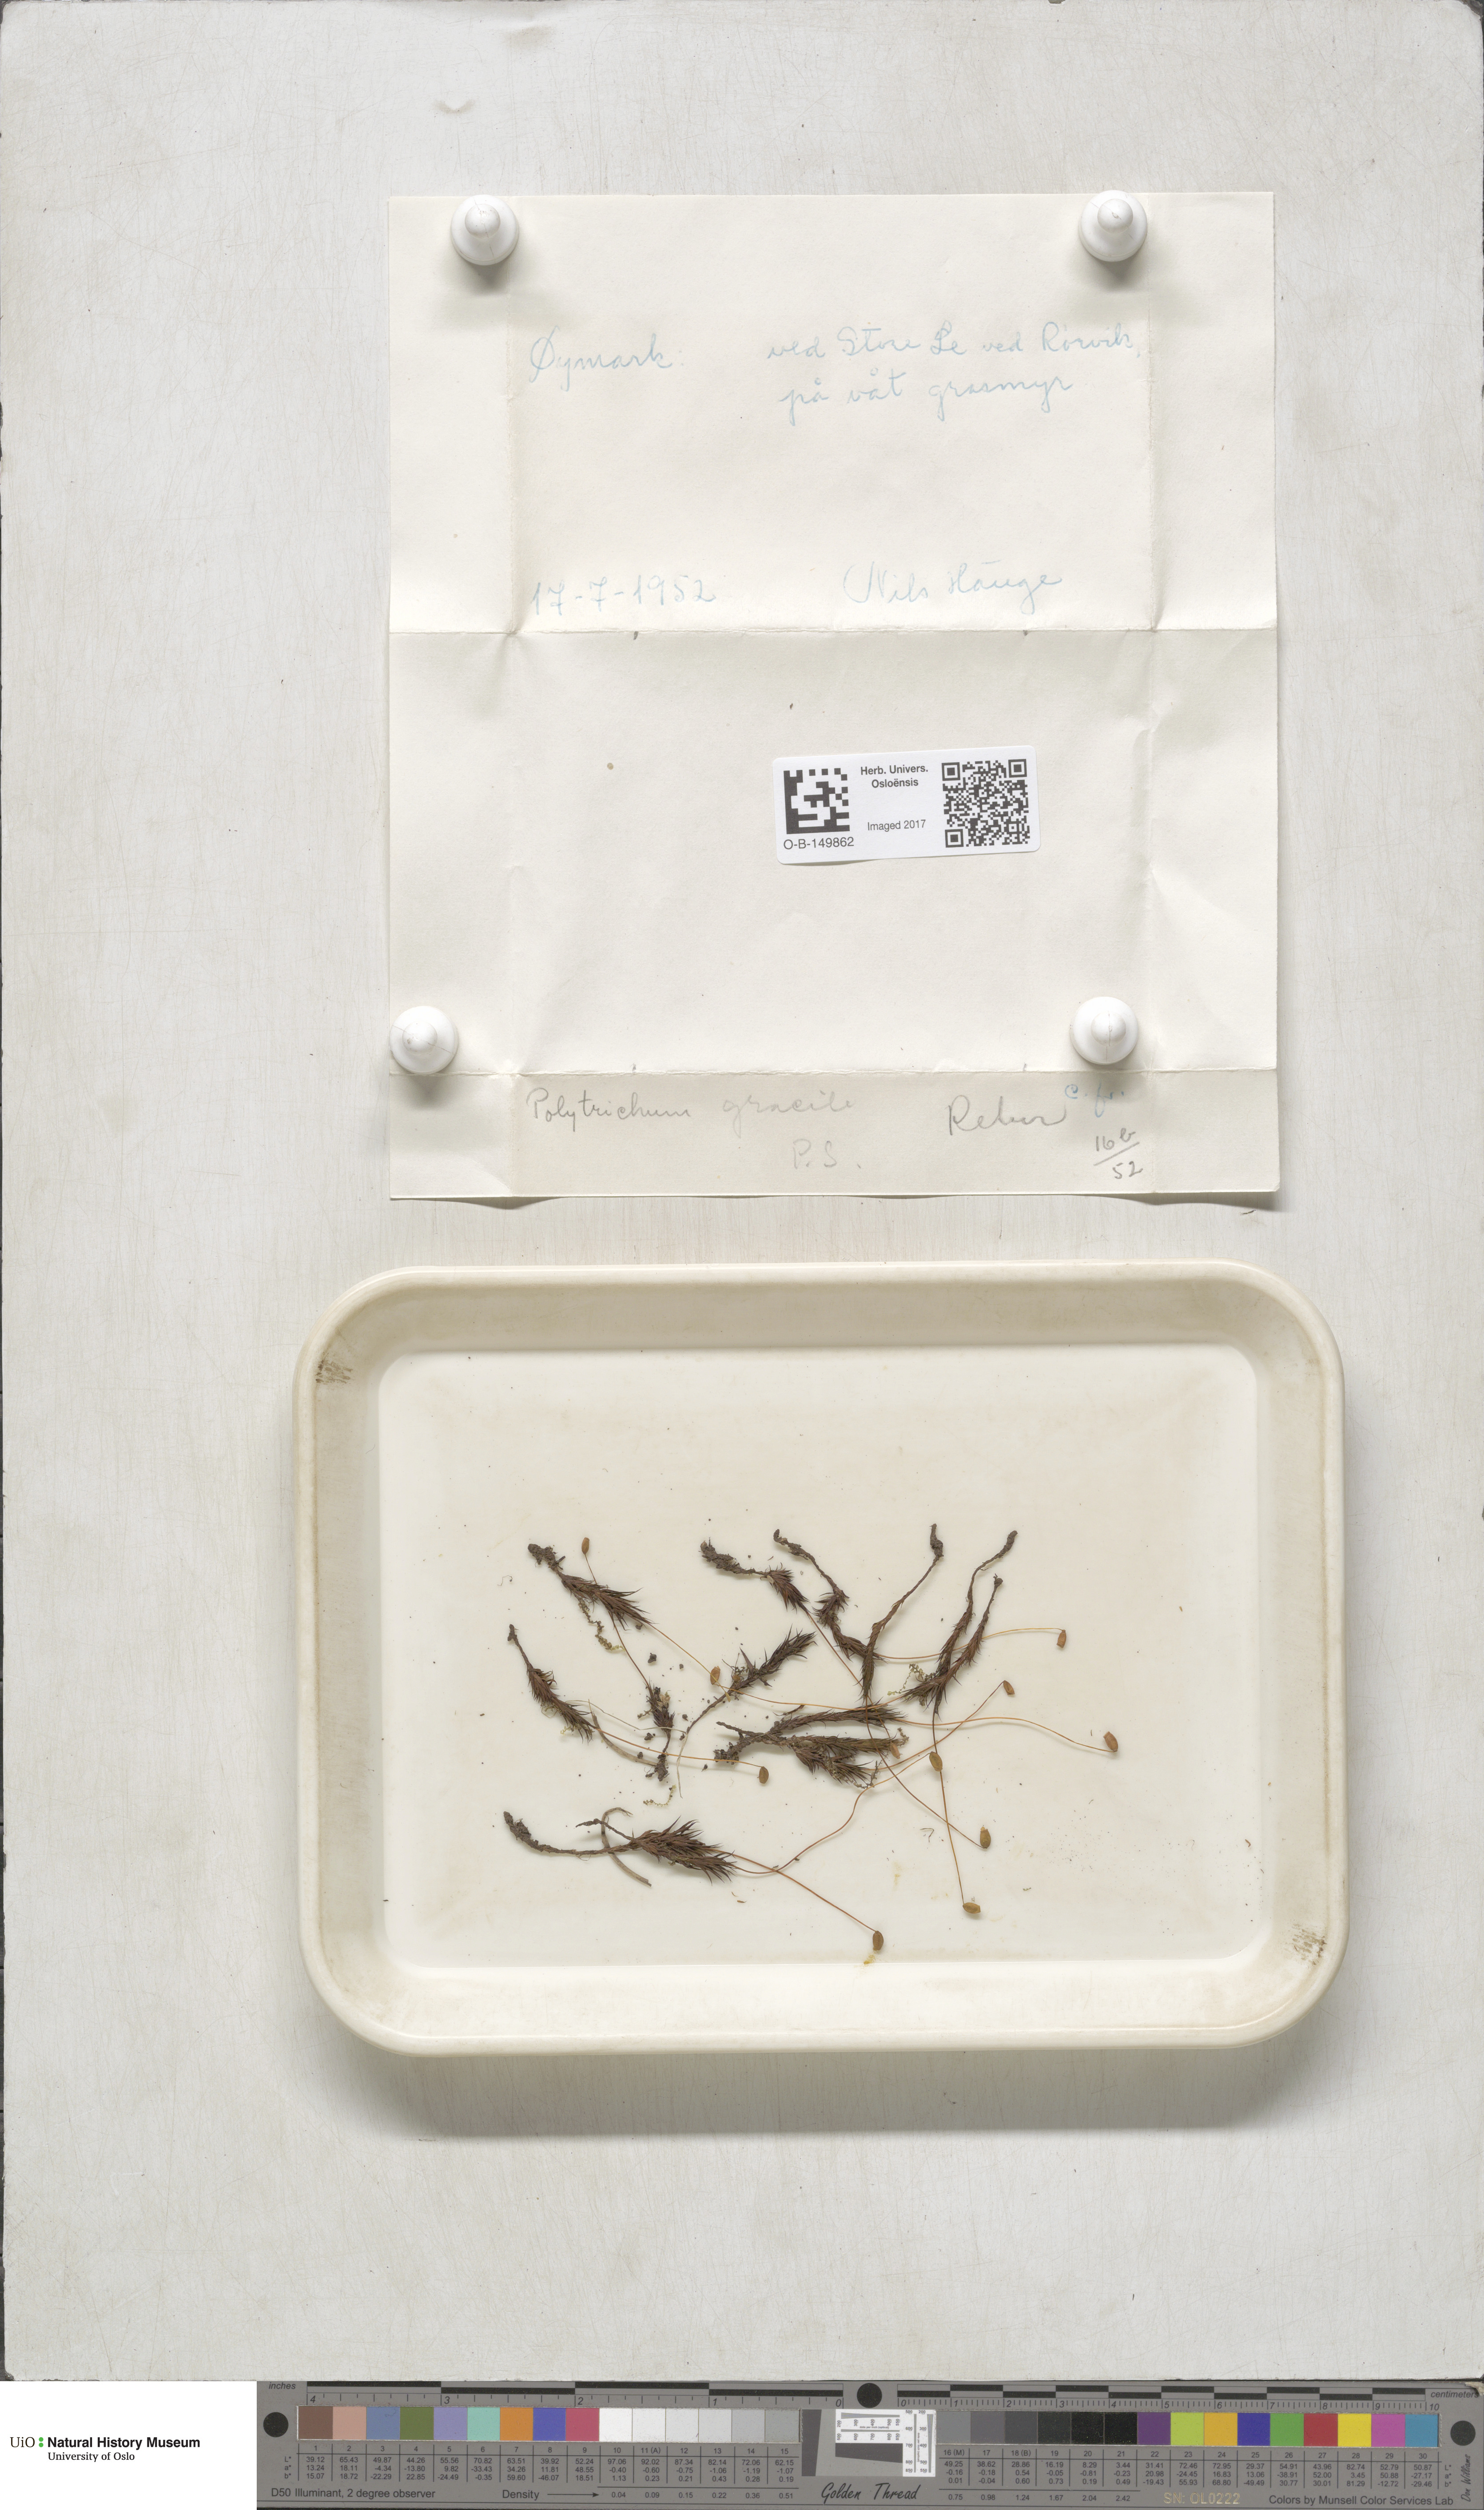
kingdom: Plantae
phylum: Bryophyta
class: Polytrichopsida
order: Polytrichales
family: Polytrichaceae
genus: Polytrichum
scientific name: Polytrichum longisetum
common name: Long-stalked haircap moss
